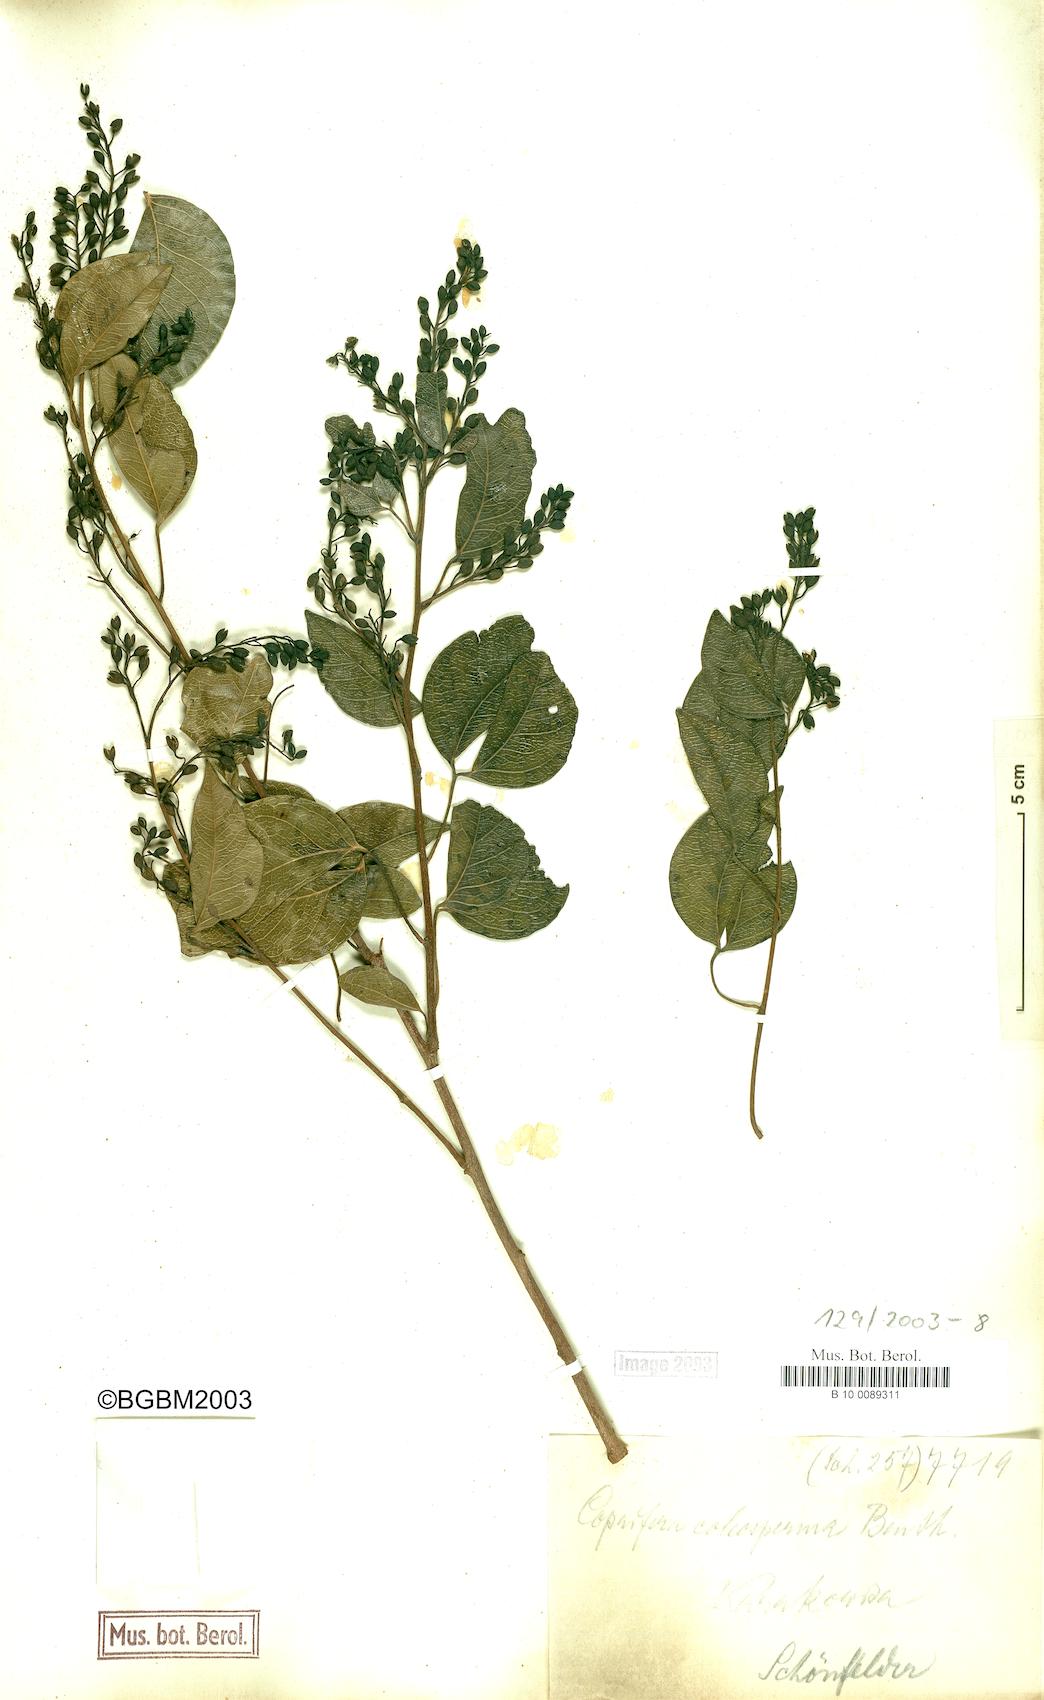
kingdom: Plantae
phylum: Tracheophyta
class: Magnoliopsida
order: Fabales
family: Fabaceae
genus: Guibourtia
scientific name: Guibourtia coleosperma
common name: African rosewoood
